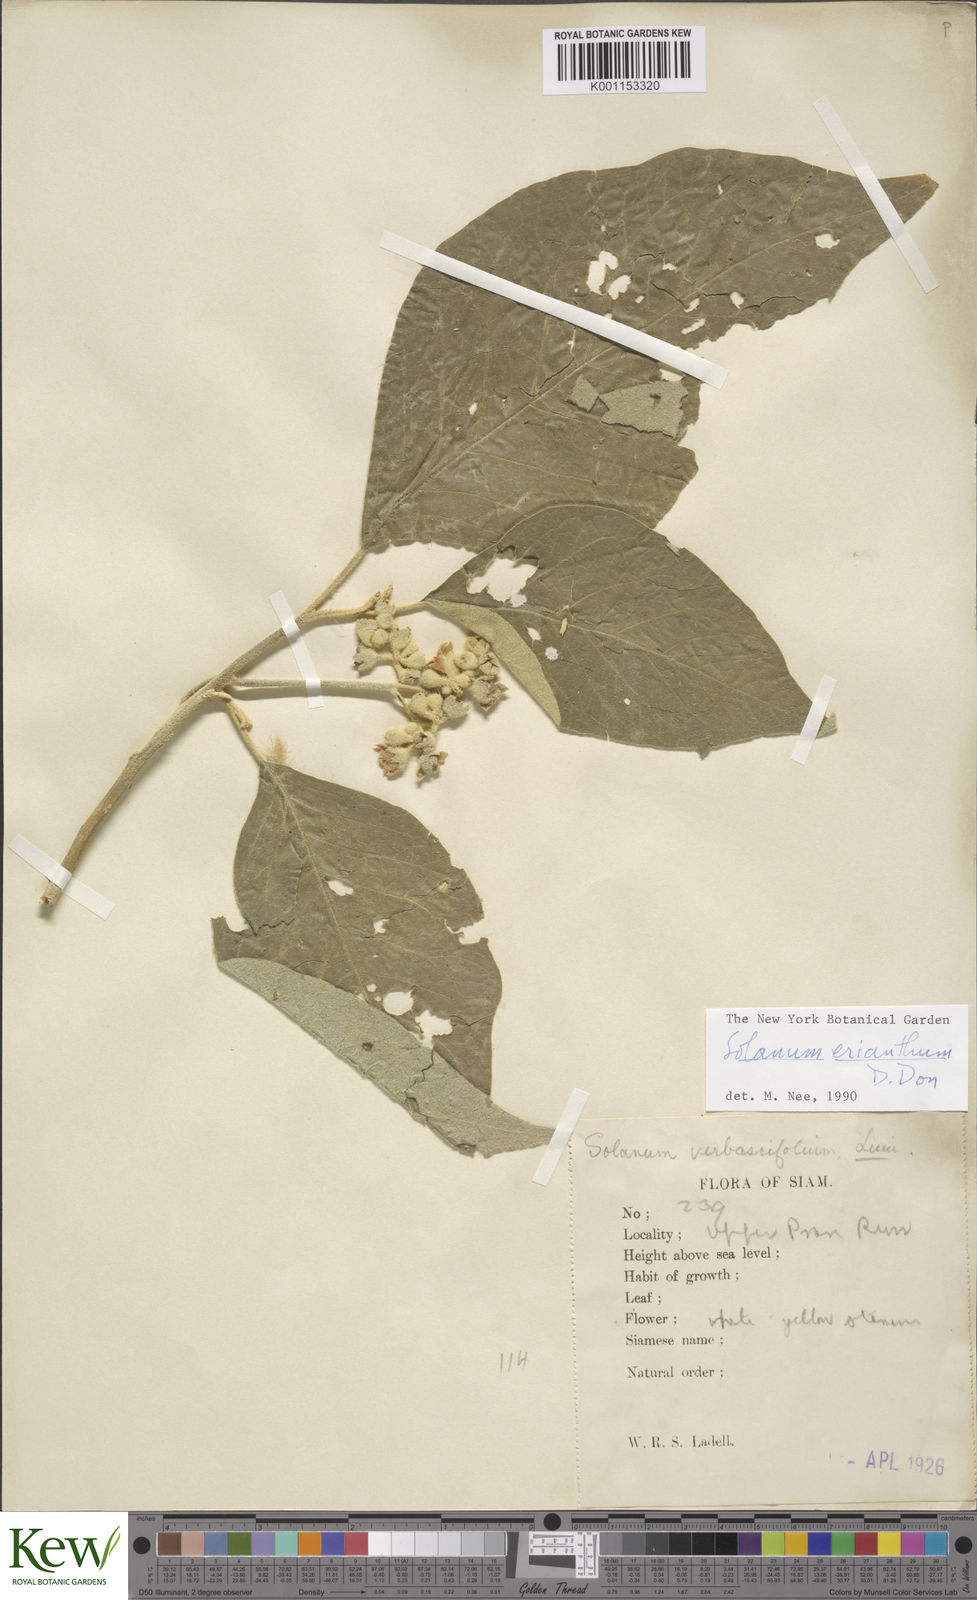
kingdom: Plantae
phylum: Tracheophyta
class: Magnoliopsida
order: Solanales
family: Solanaceae
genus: Solanum
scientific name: Solanum erianthum
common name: Tobacco-tree
